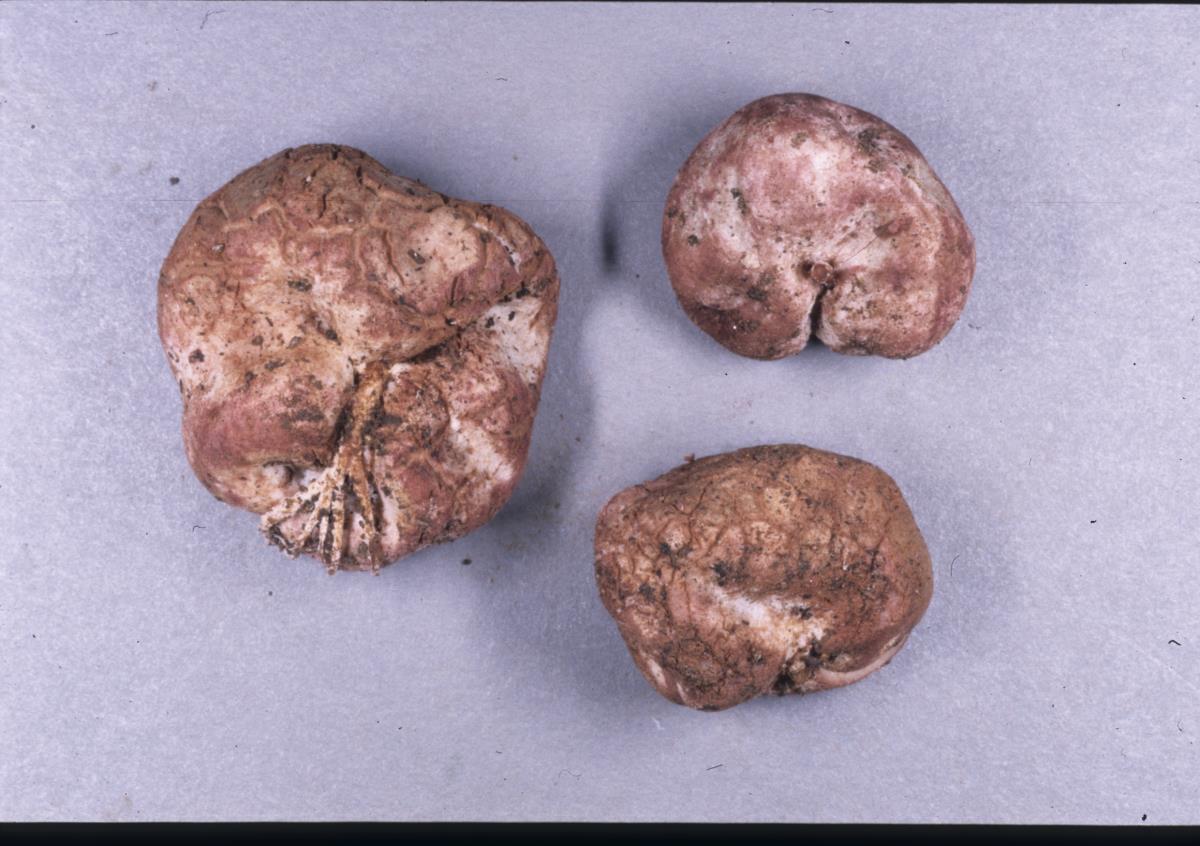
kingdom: Fungi
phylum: Basidiomycota
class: Agaricomycetes
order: Hysterangiales
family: Hysterangiaceae
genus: Hysterangium
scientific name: Hysterangium neotunicatum
